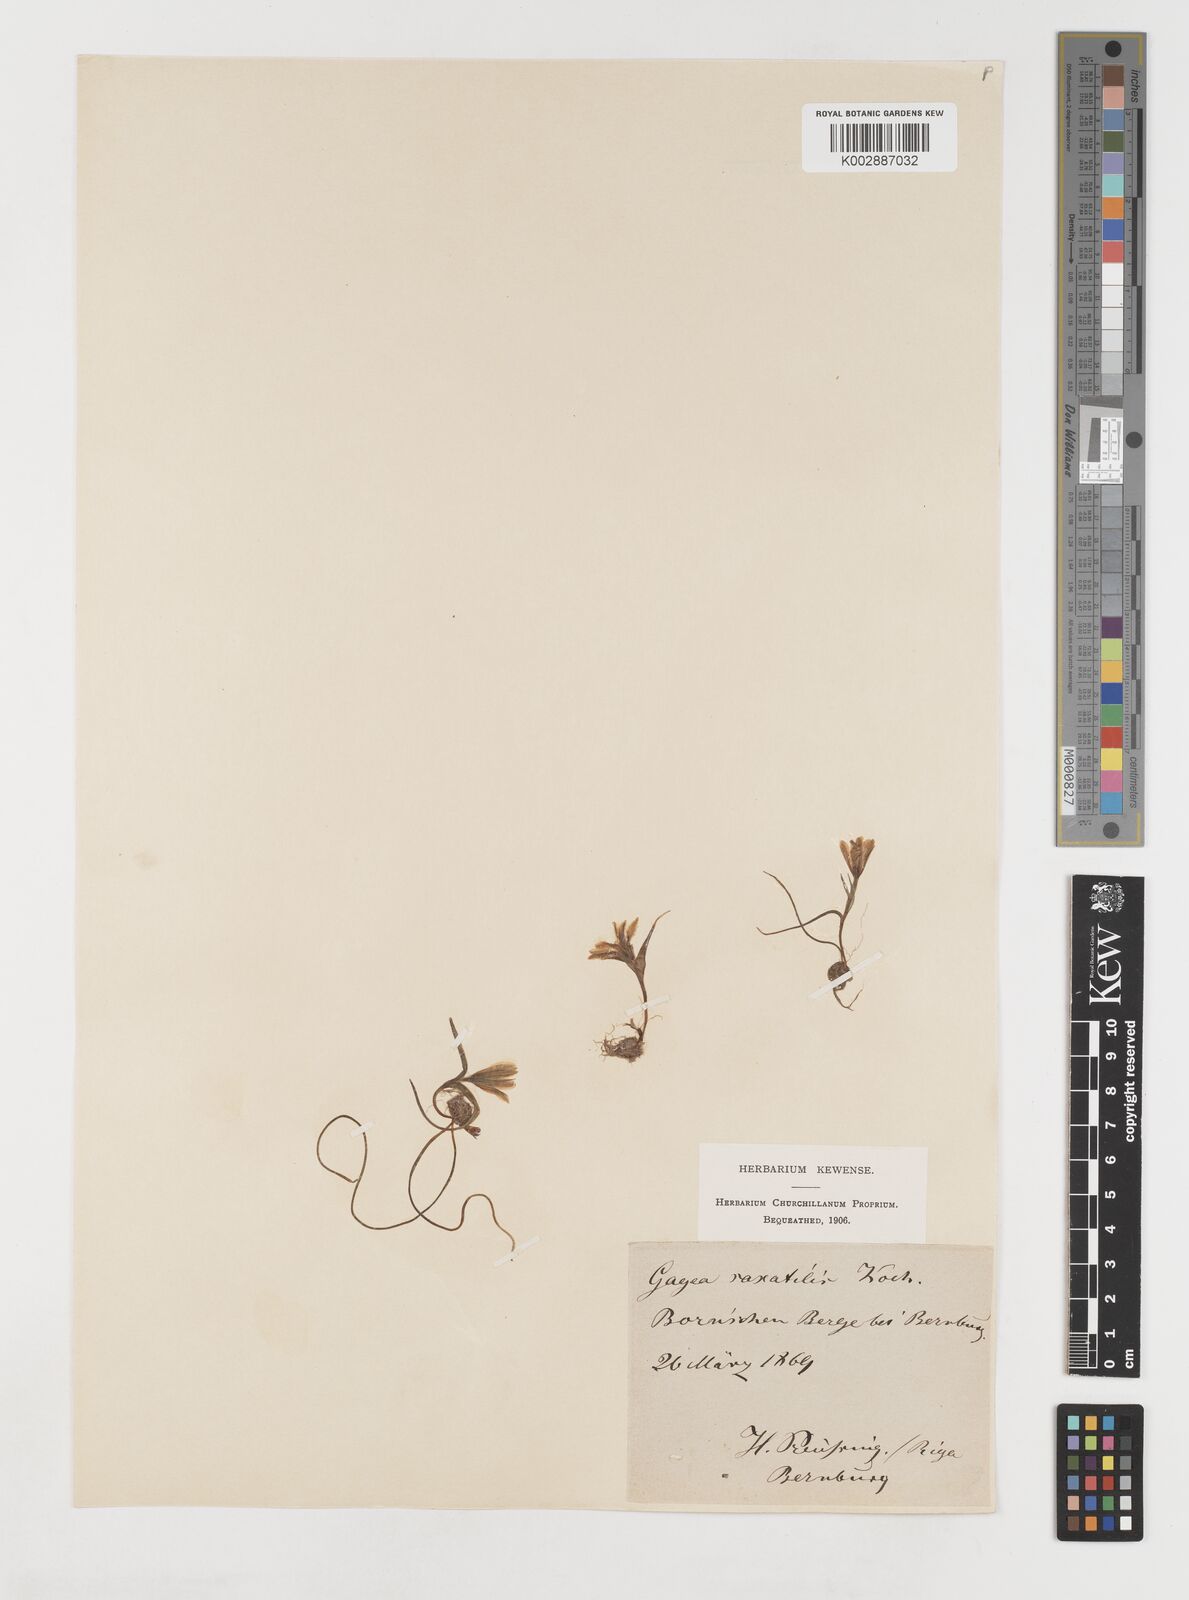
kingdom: Plantae
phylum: Tracheophyta
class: Liliopsida
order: Liliales
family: Liliaceae
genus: Gagea
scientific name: Gagea bohemica
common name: Early star-of-bethlehem
